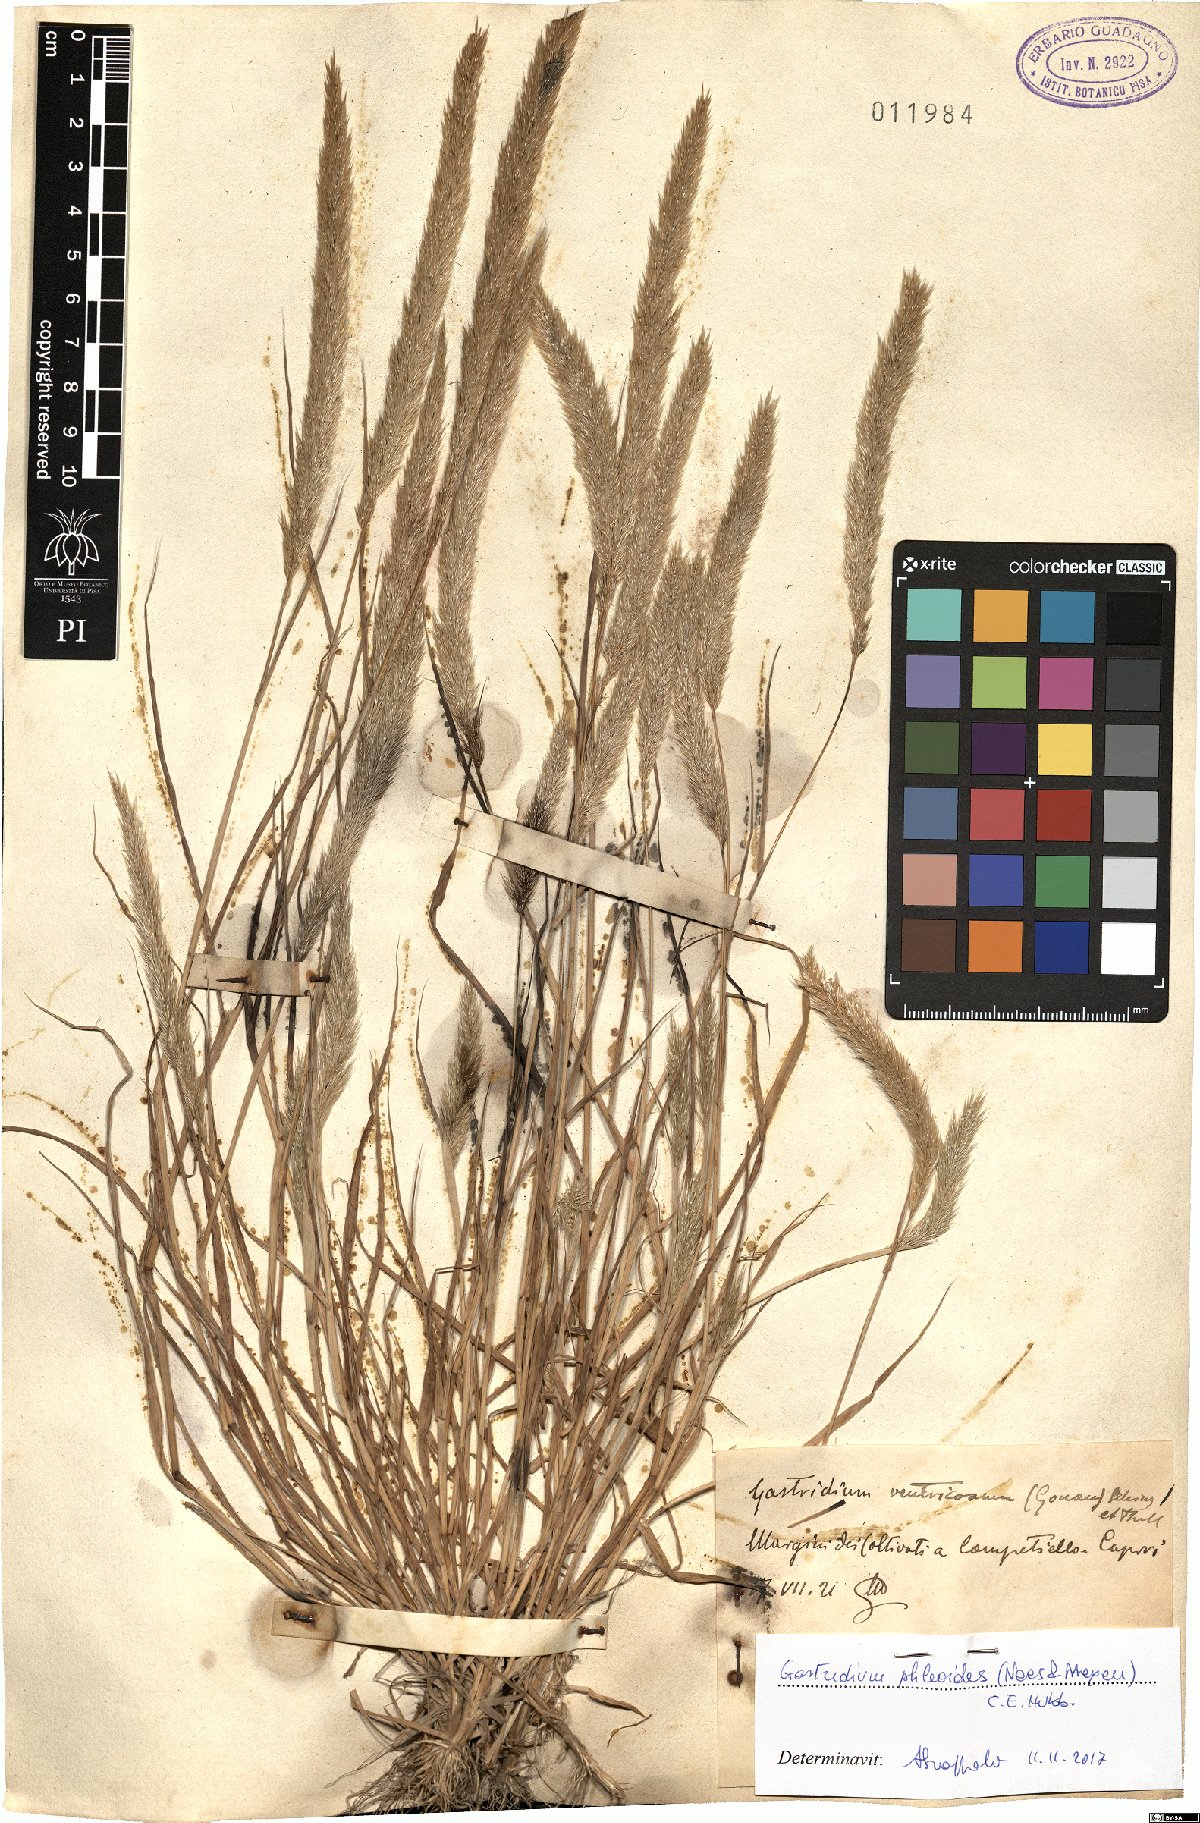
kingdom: Plantae
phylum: Tracheophyta
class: Liliopsida
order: Poales
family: Poaceae
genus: Gastridium
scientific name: Gastridium phleoides
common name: Nit grass
